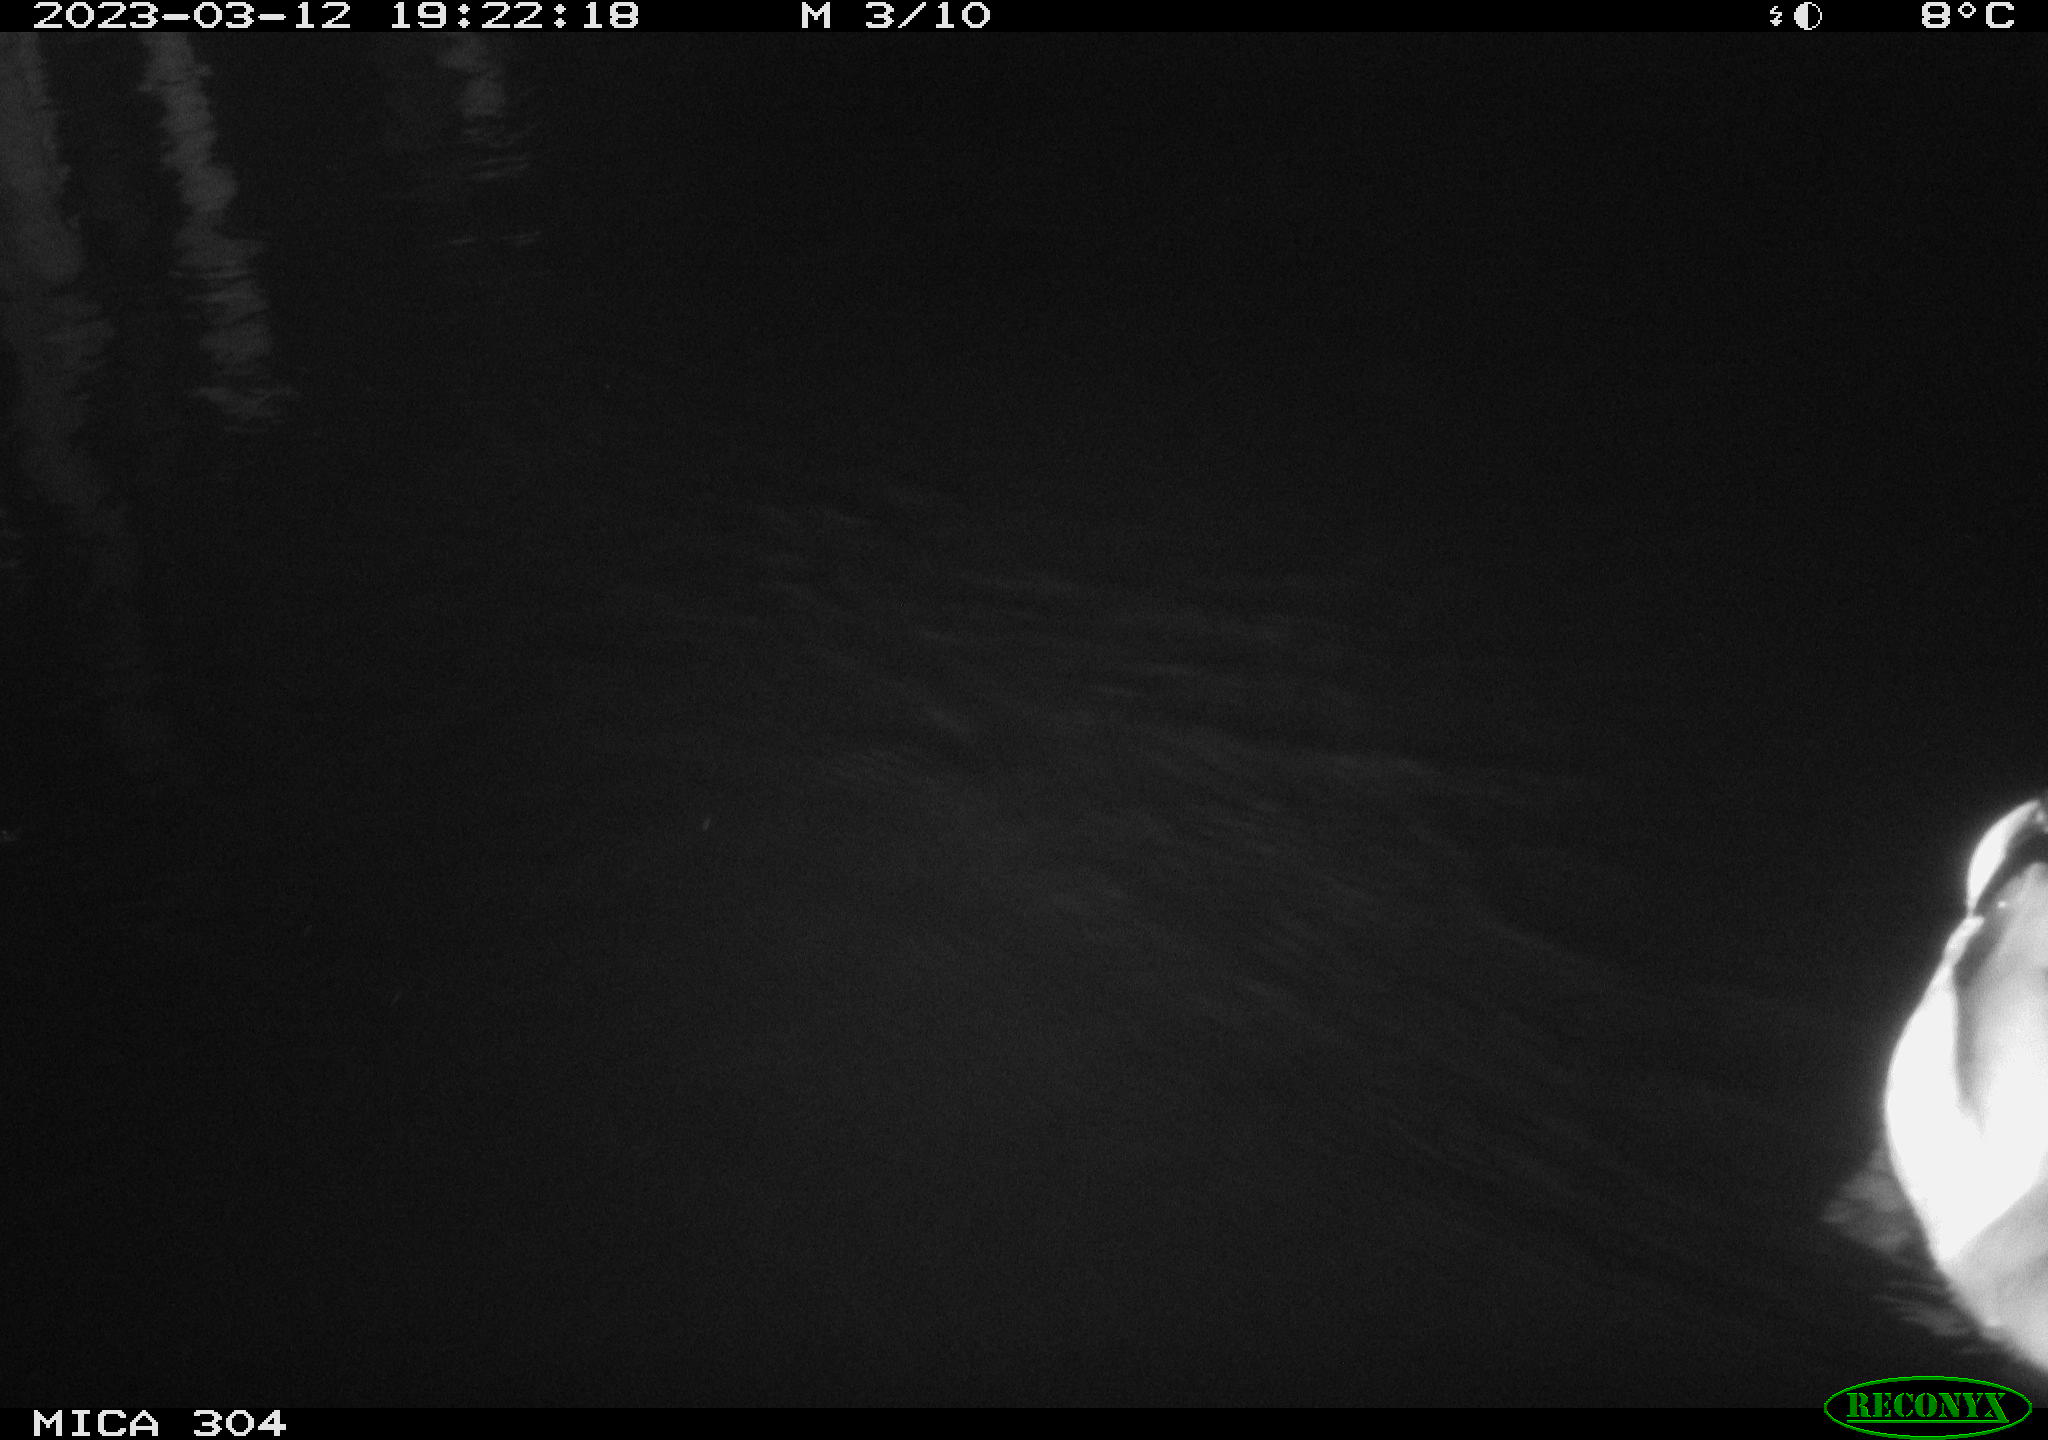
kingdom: Animalia
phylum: Chordata
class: Aves
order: Anseriformes
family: Anatidae
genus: Anas
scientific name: Anas
